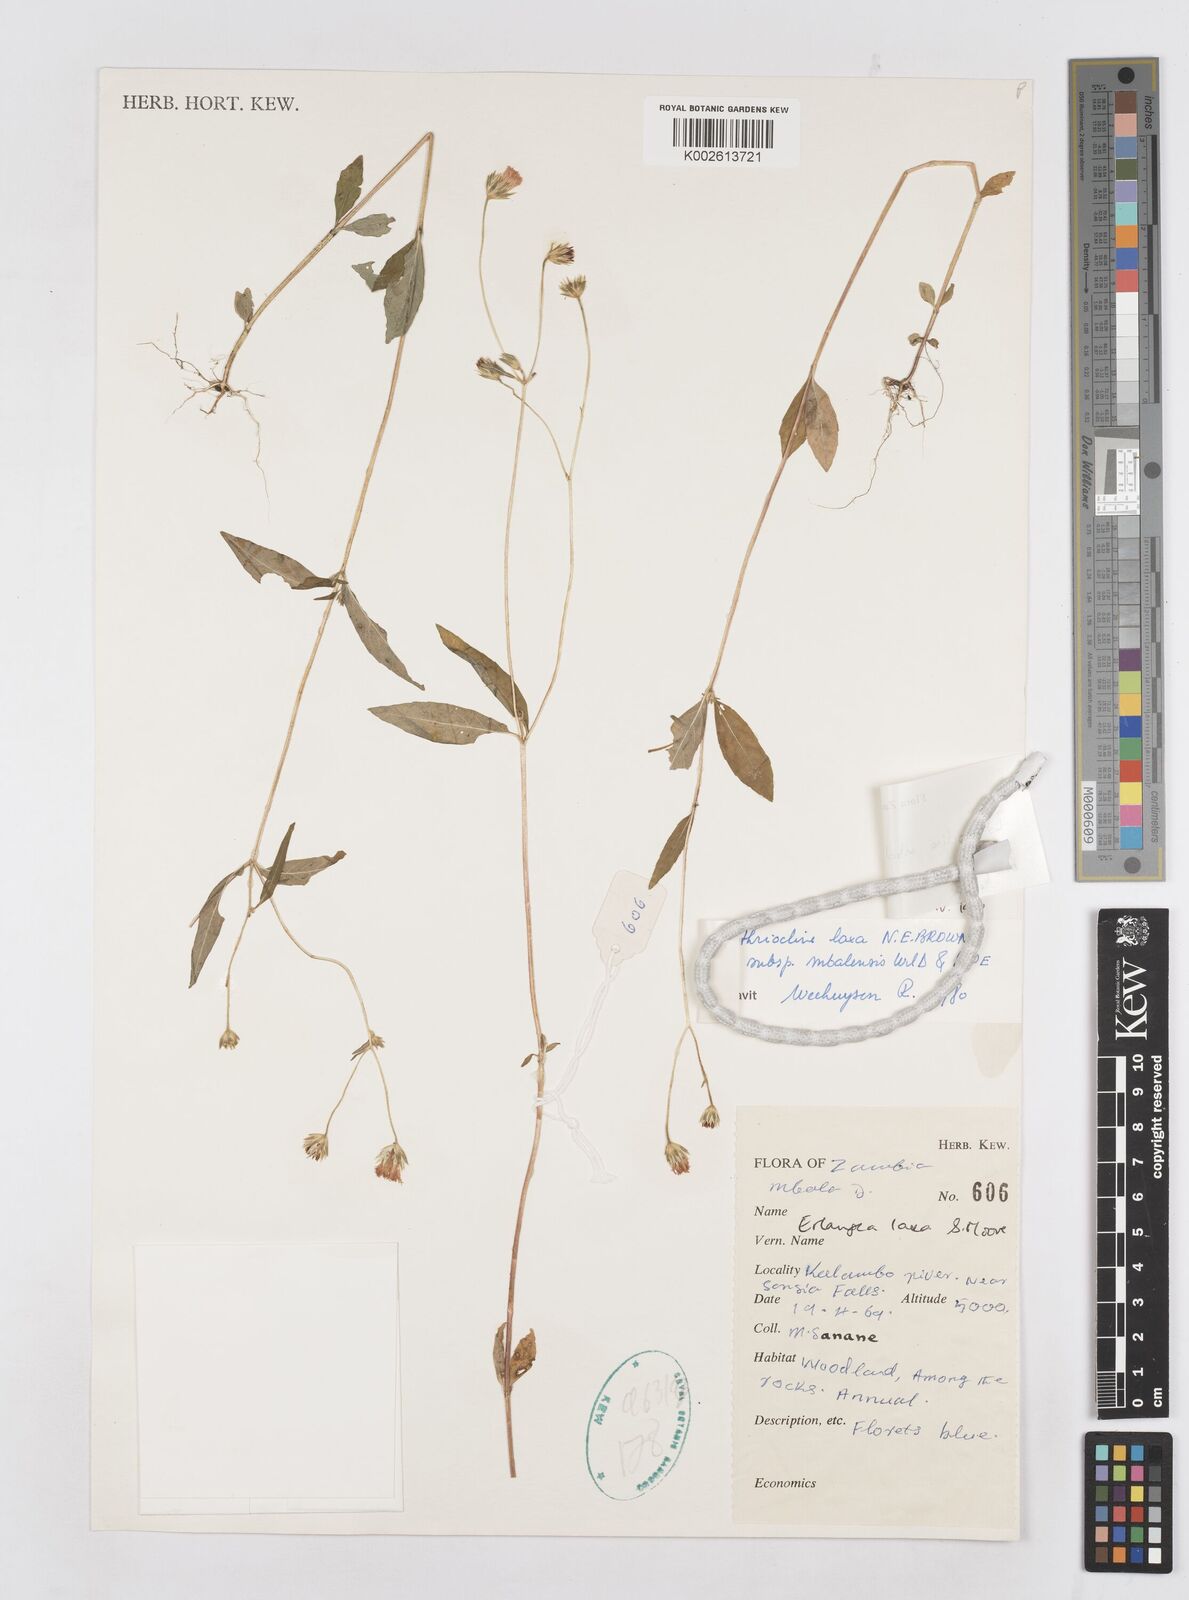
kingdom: Plantae
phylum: Tracheophyta
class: Magnoliopsida
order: Asterales
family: Asteraceae
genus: Bothriocline
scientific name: Bothriocline mbalensis
